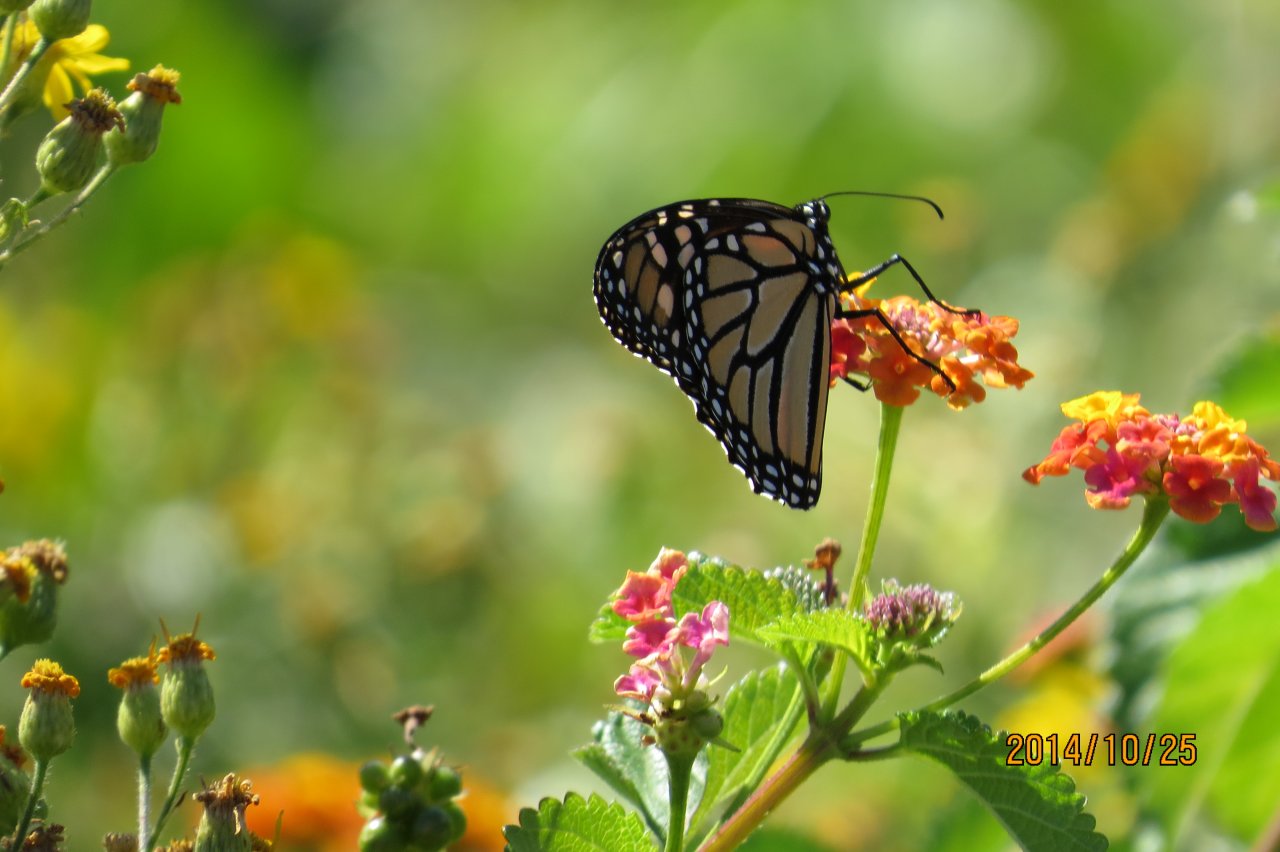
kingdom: Animalia
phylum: Arthropoda
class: Insecta
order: Lepidoptera
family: Nymphalidae
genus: Danaus
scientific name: Danaus plexippus
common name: Monarch
